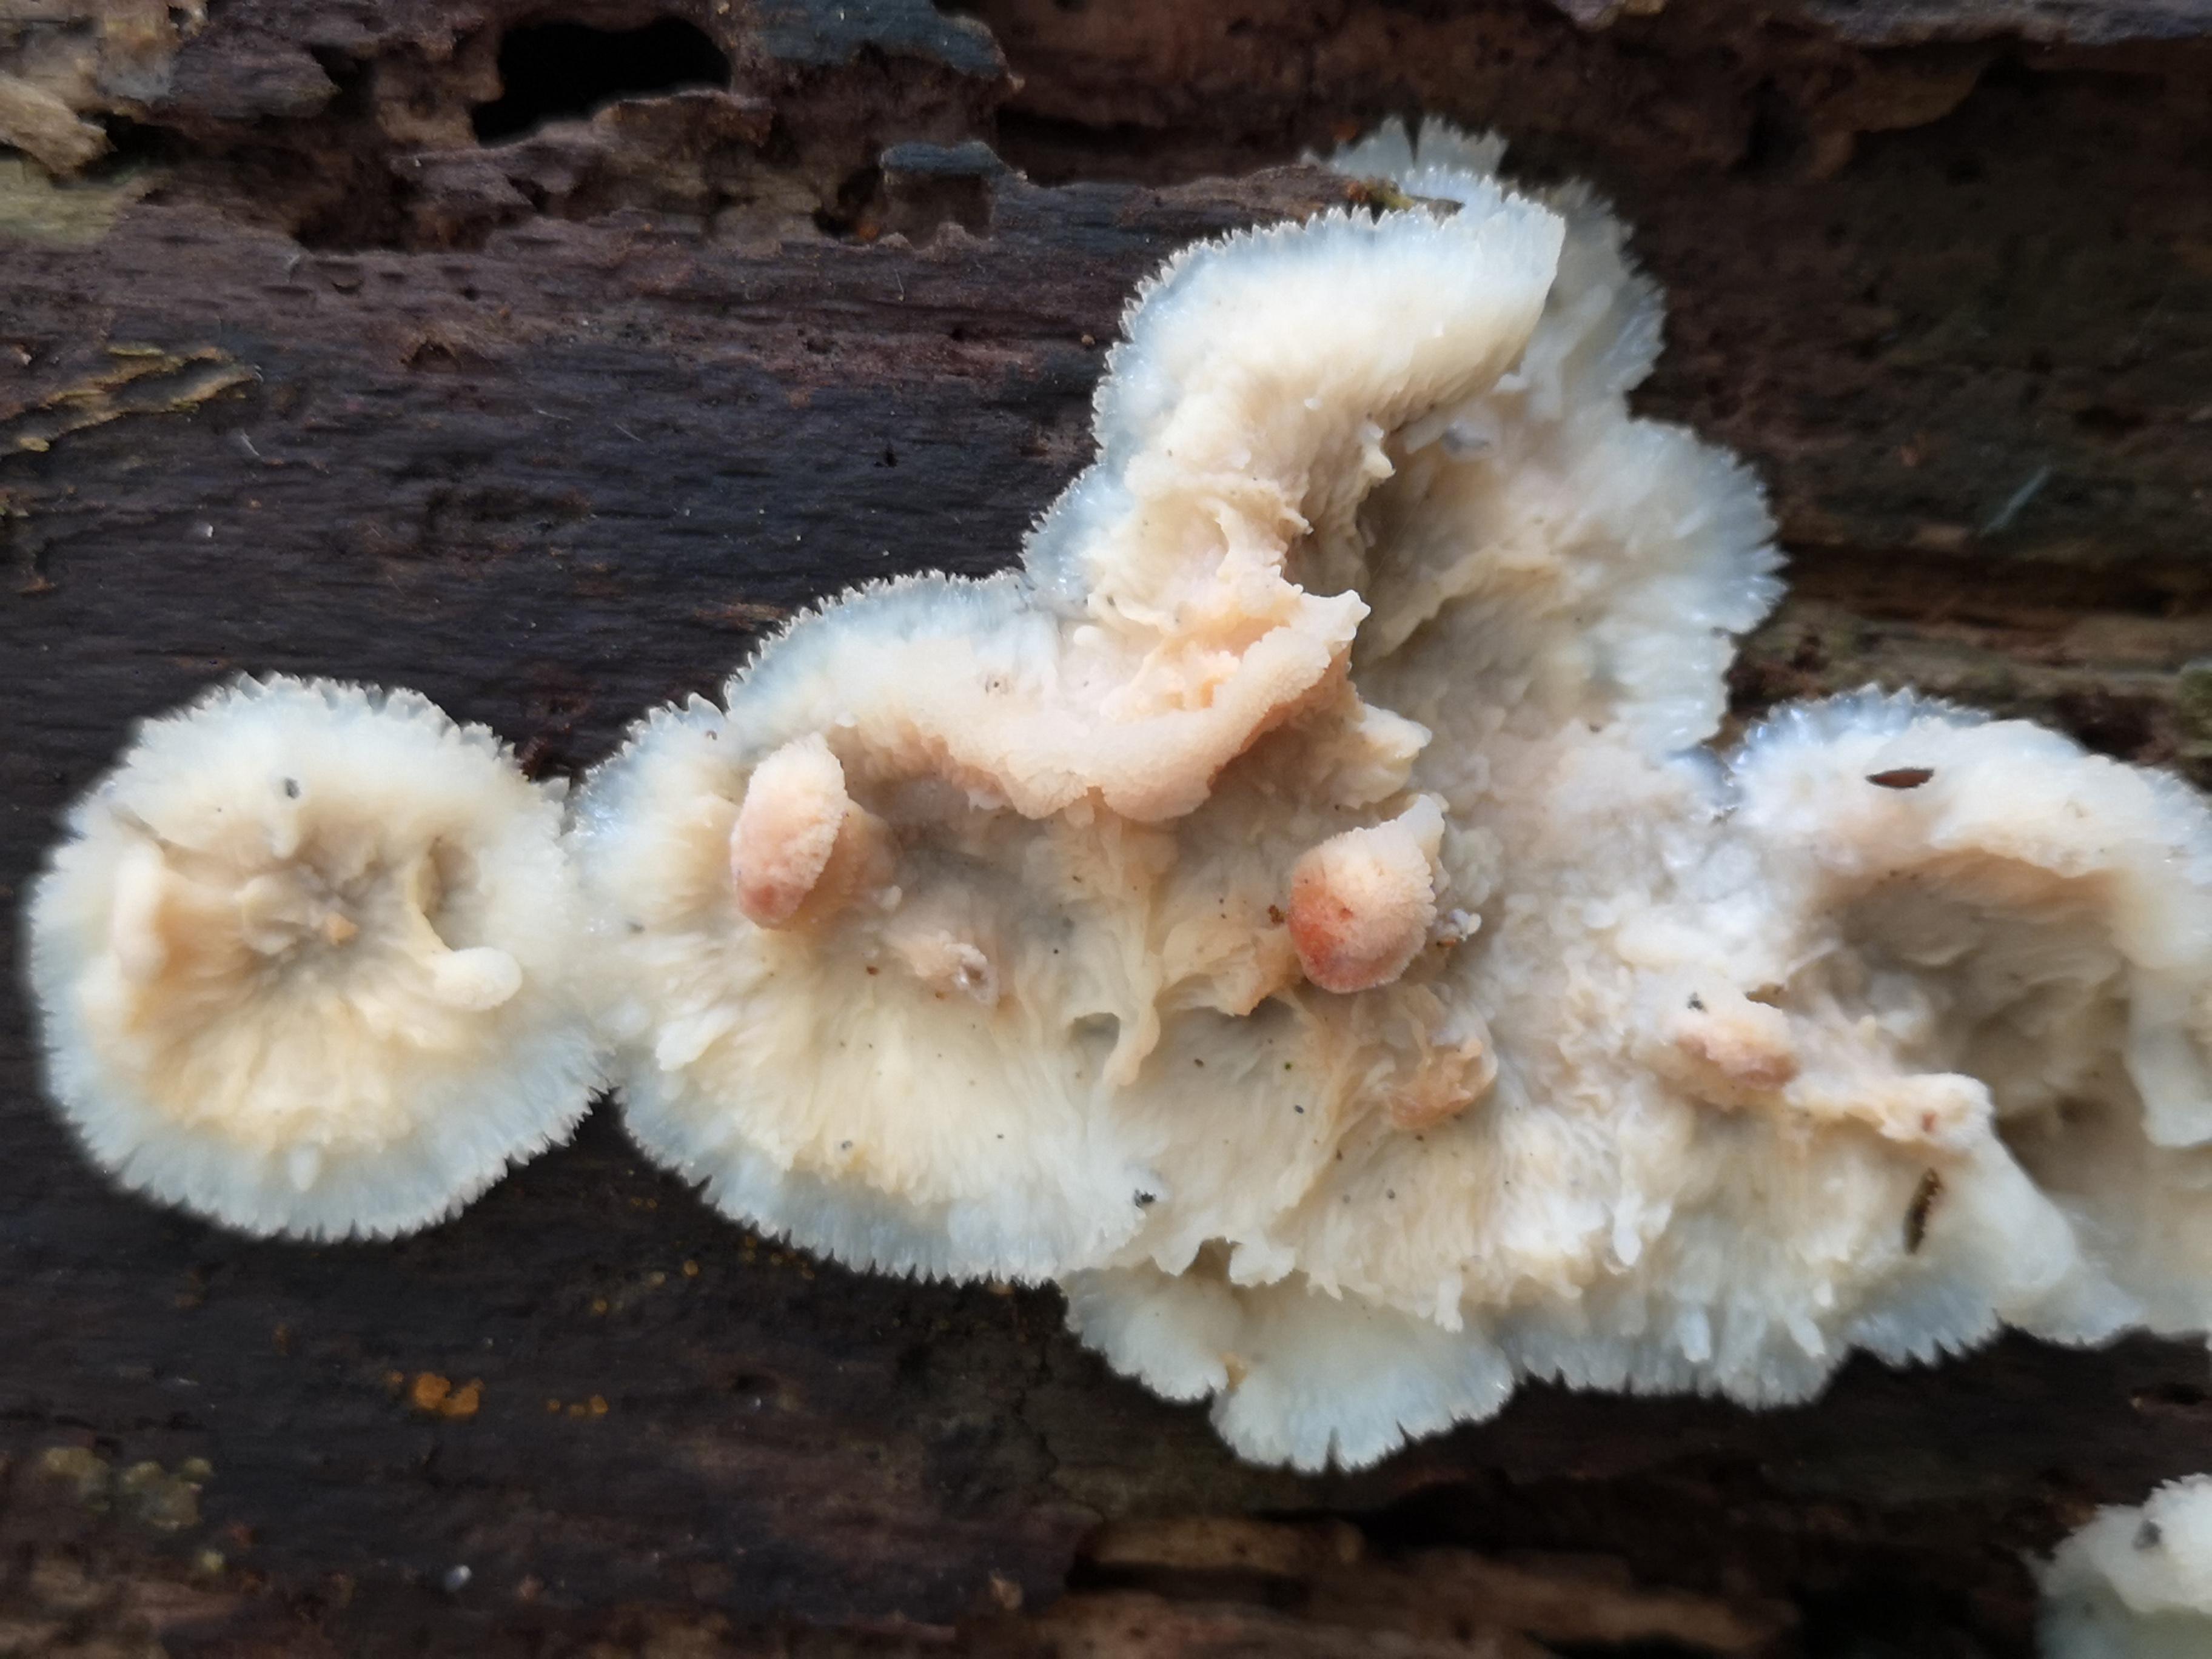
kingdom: Fungi
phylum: Basidiomycota
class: Agaricomycetes
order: Polyporales
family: Meruliaceae
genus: Phlebia
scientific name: Phlebia tremellosa
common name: bævrende åresvamp
